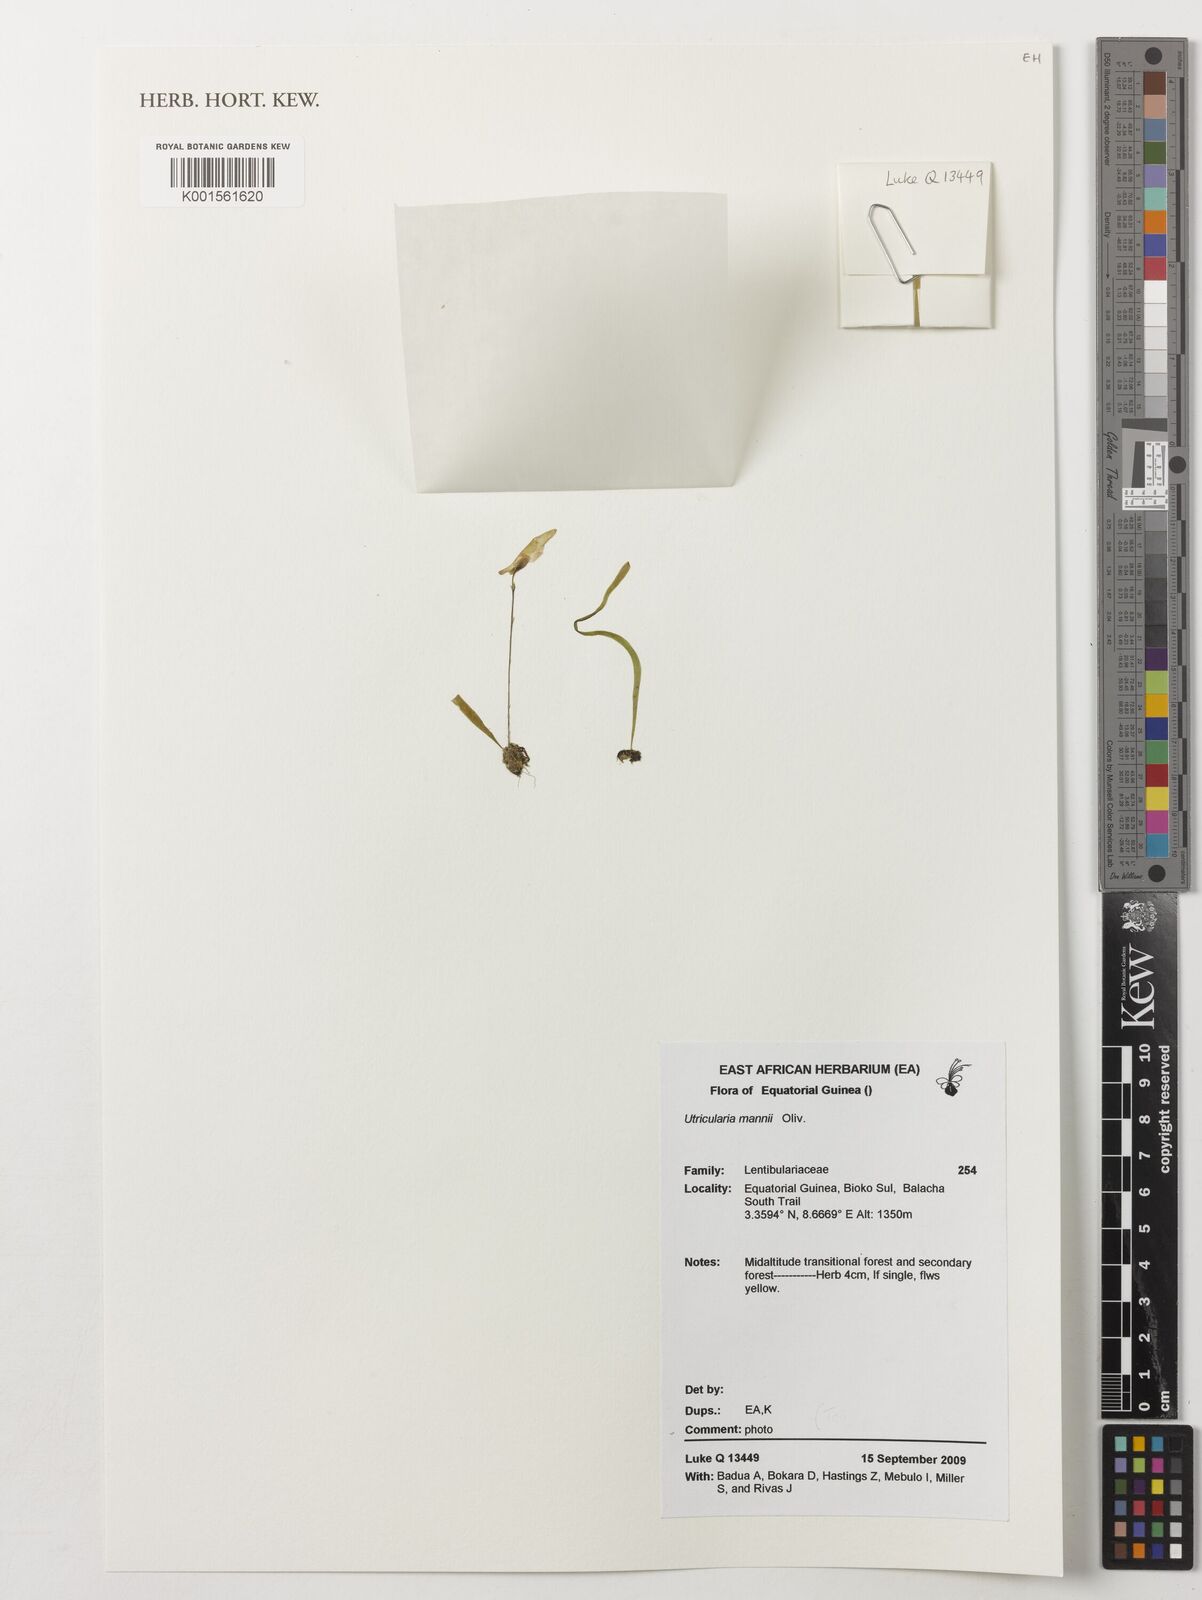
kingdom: Plantae
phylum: Tracheophyta
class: Magnoliopsida
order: Lamiales
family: Lentibulariaceae
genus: Utricularia
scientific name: Utricularia mannii
